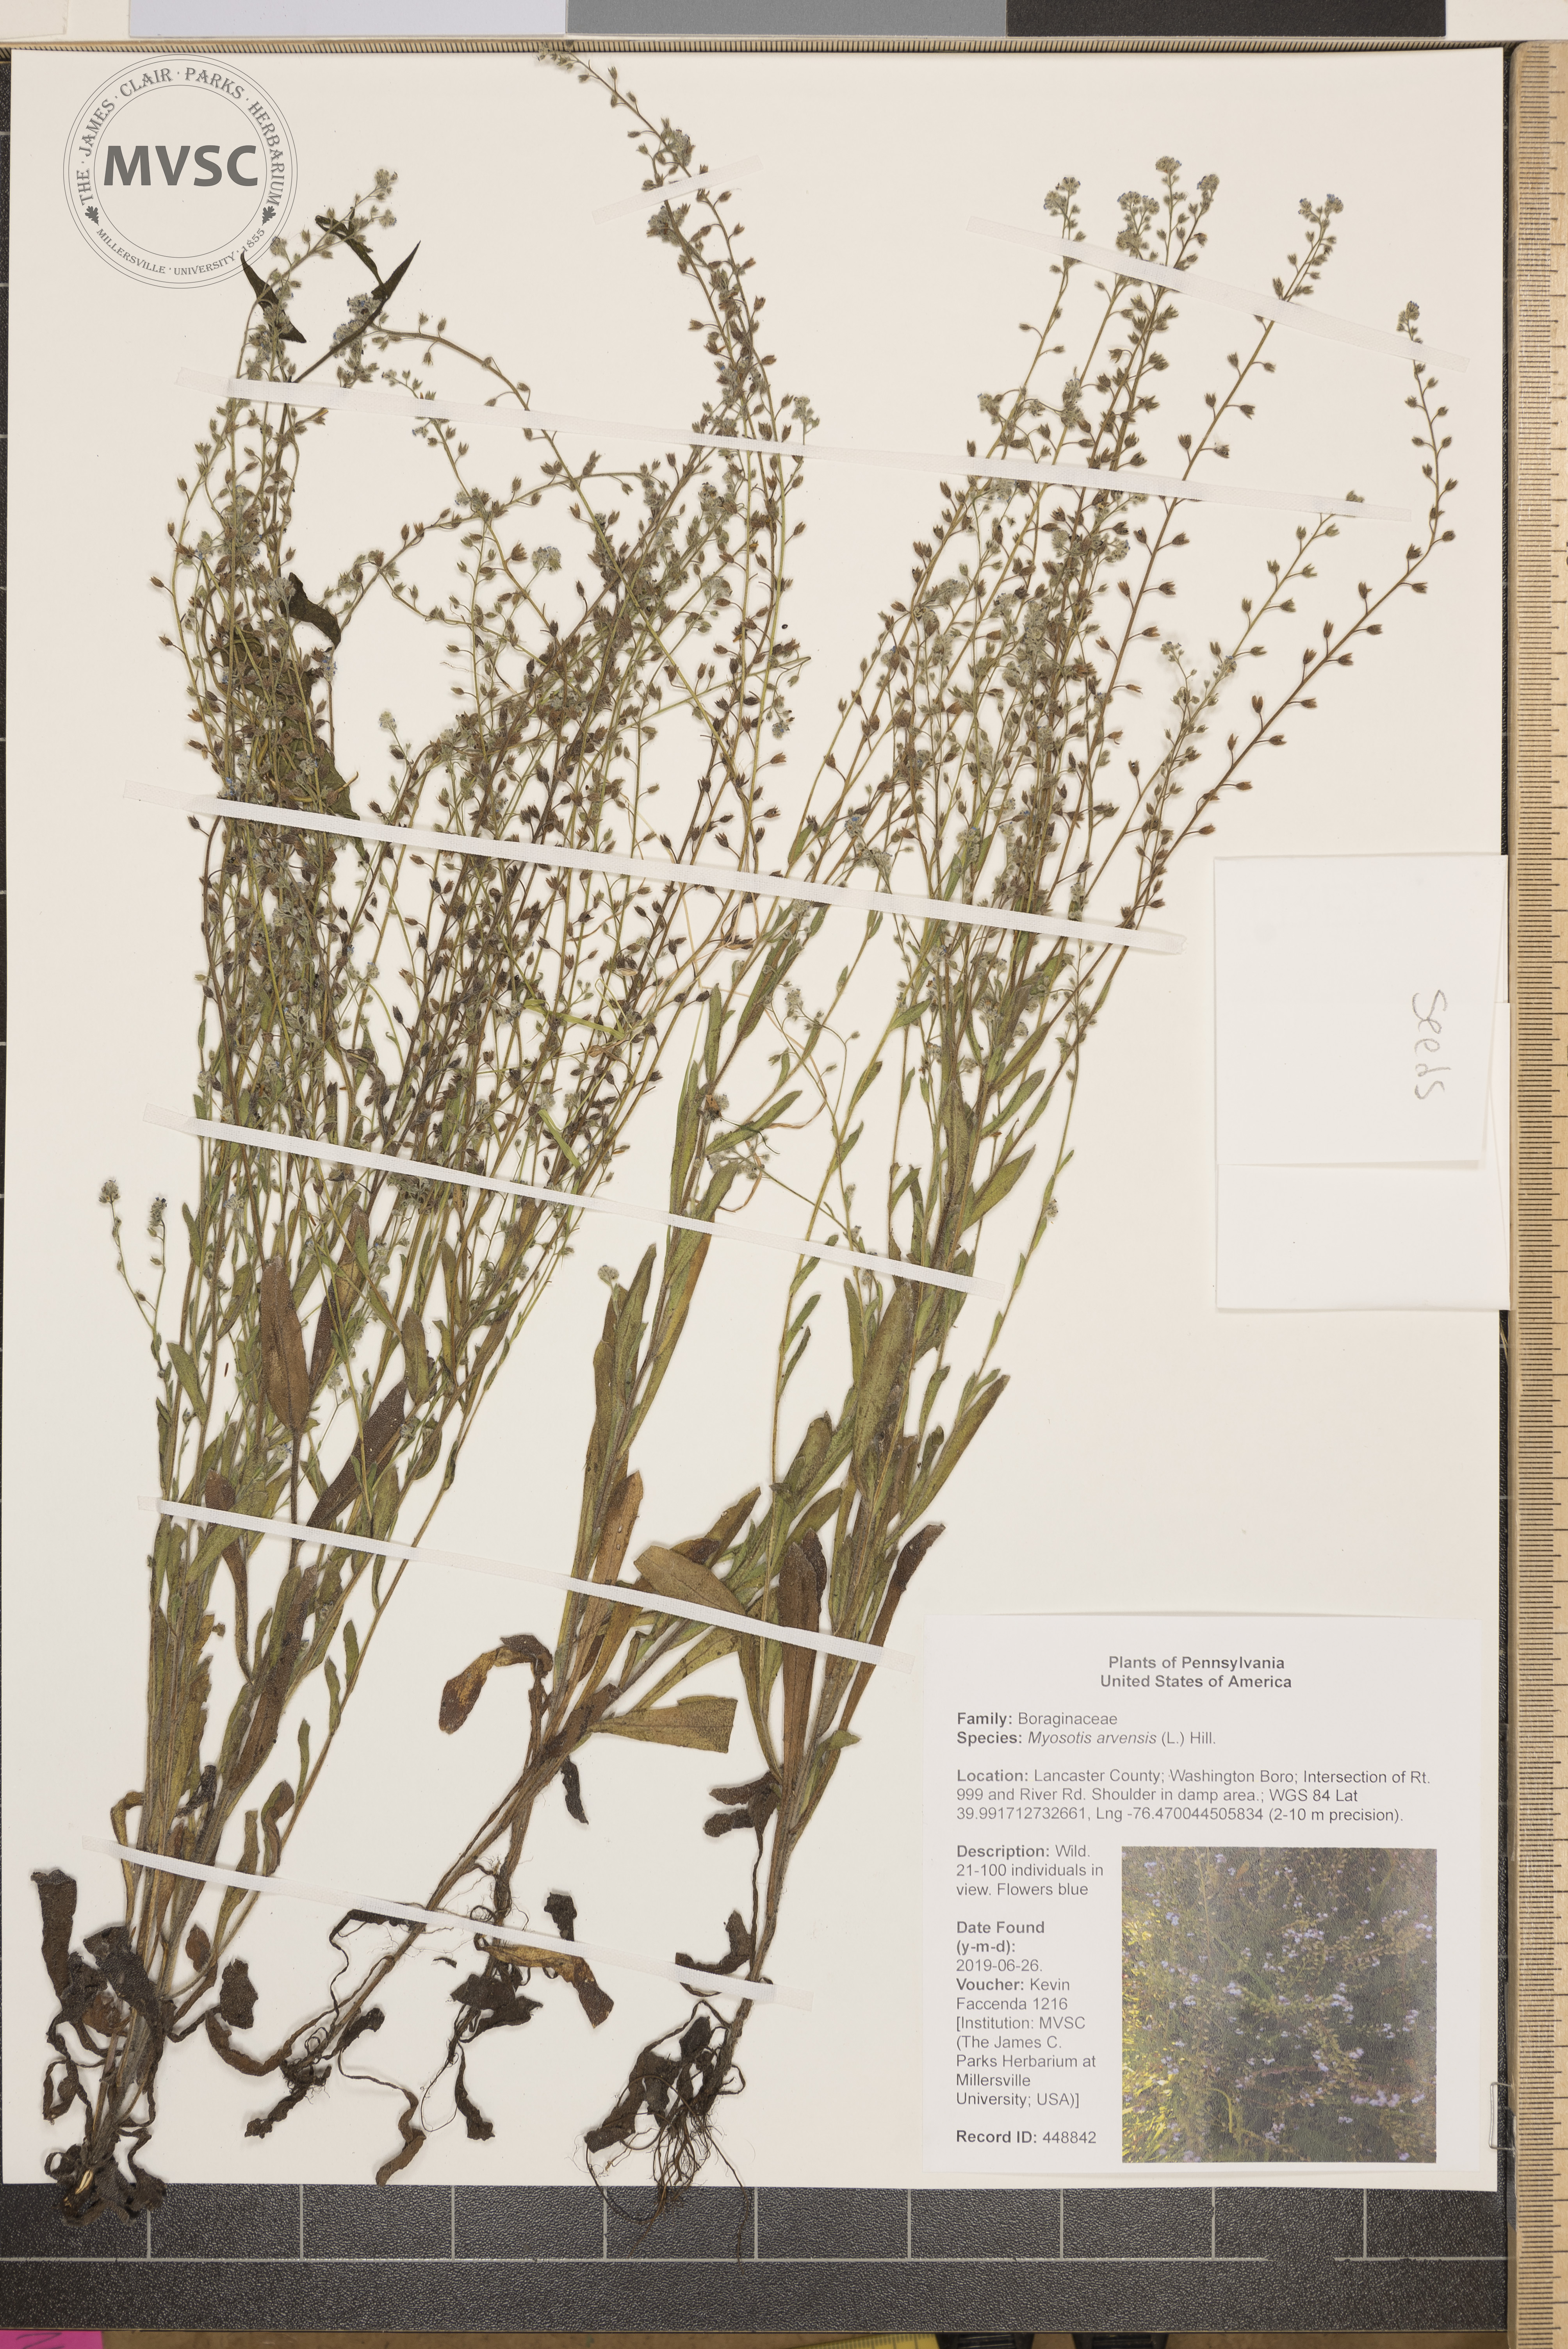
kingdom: Plantae
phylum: Tracheophyta
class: Magnoliopsida
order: Boraginales
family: Boraginaceae
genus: Myosotis
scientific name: Myosotis arvensis
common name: Field forget-me-not
